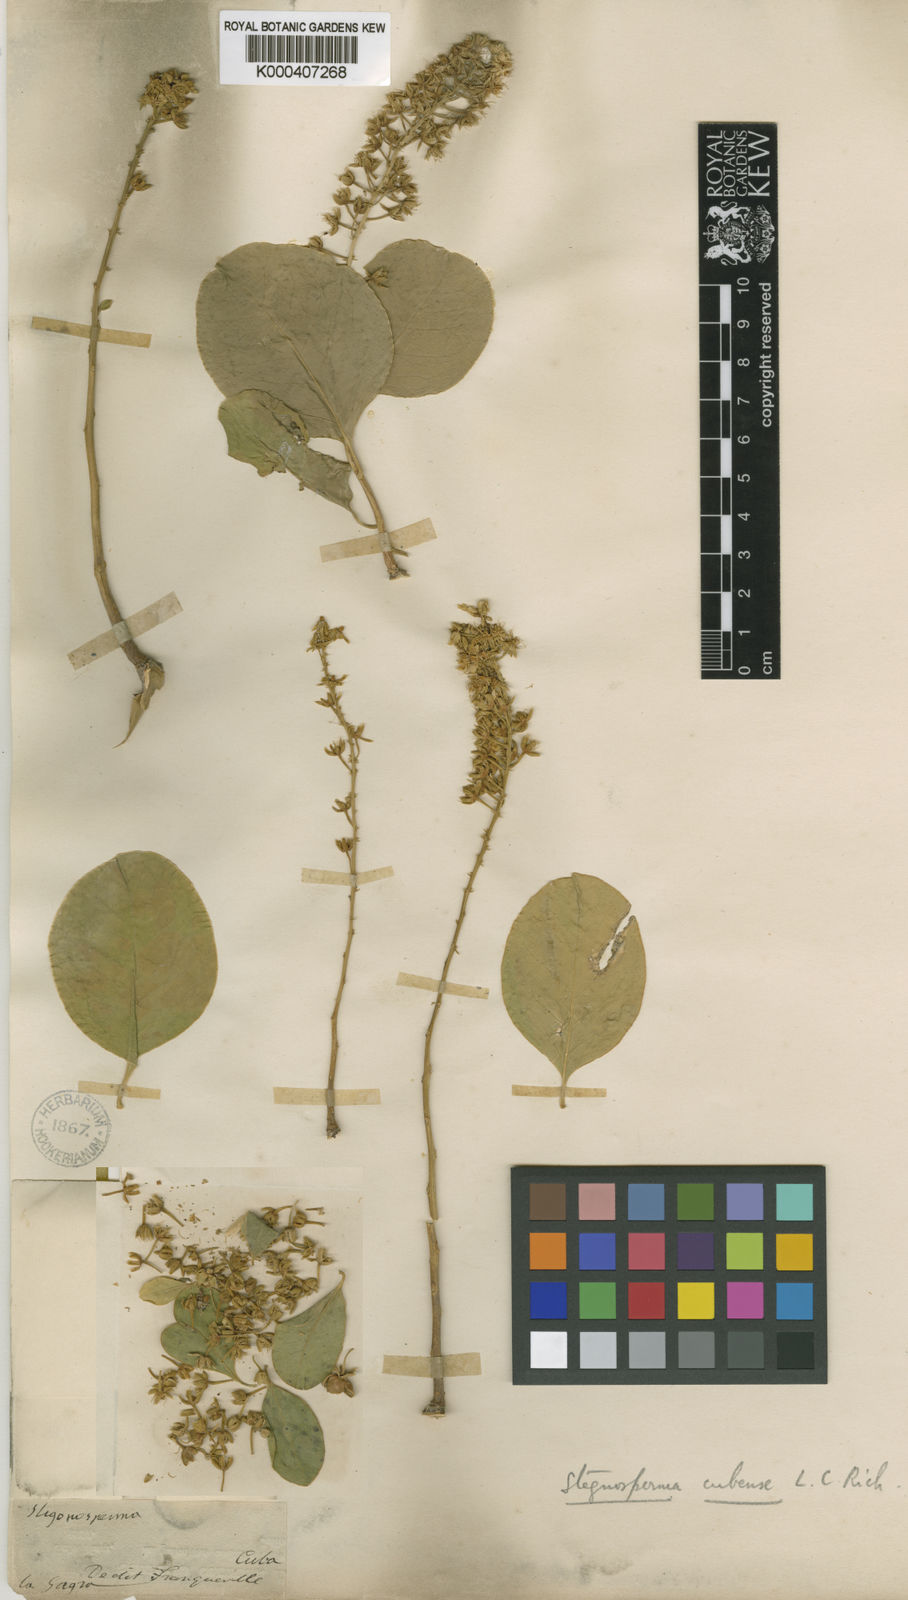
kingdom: Plantae
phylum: Tracheophyta
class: Magnoliopsida
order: Caryophyllales
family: Stegnospermataceae
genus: Stegnosperma
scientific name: Stegnosperma cubense
